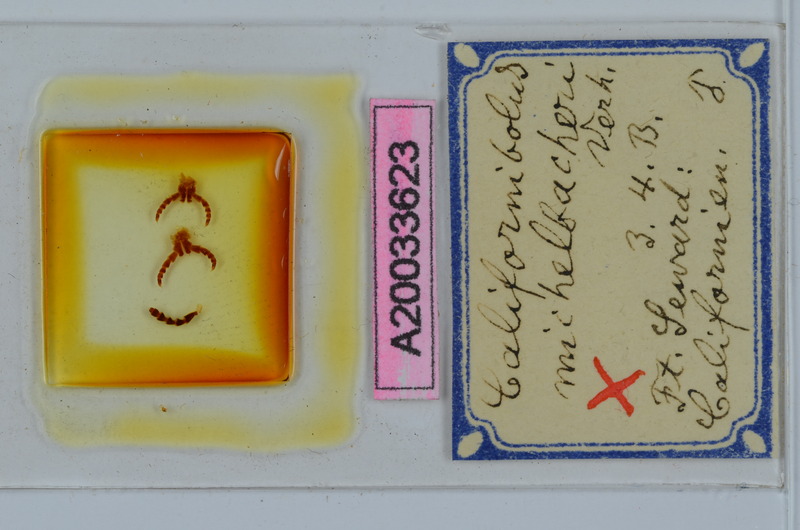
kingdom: Animalia
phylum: Arthropoda
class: Diplopoda
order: Spirobolida
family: Spirobolidae
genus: Tylobolus
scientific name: Tylobolus uncigerus
